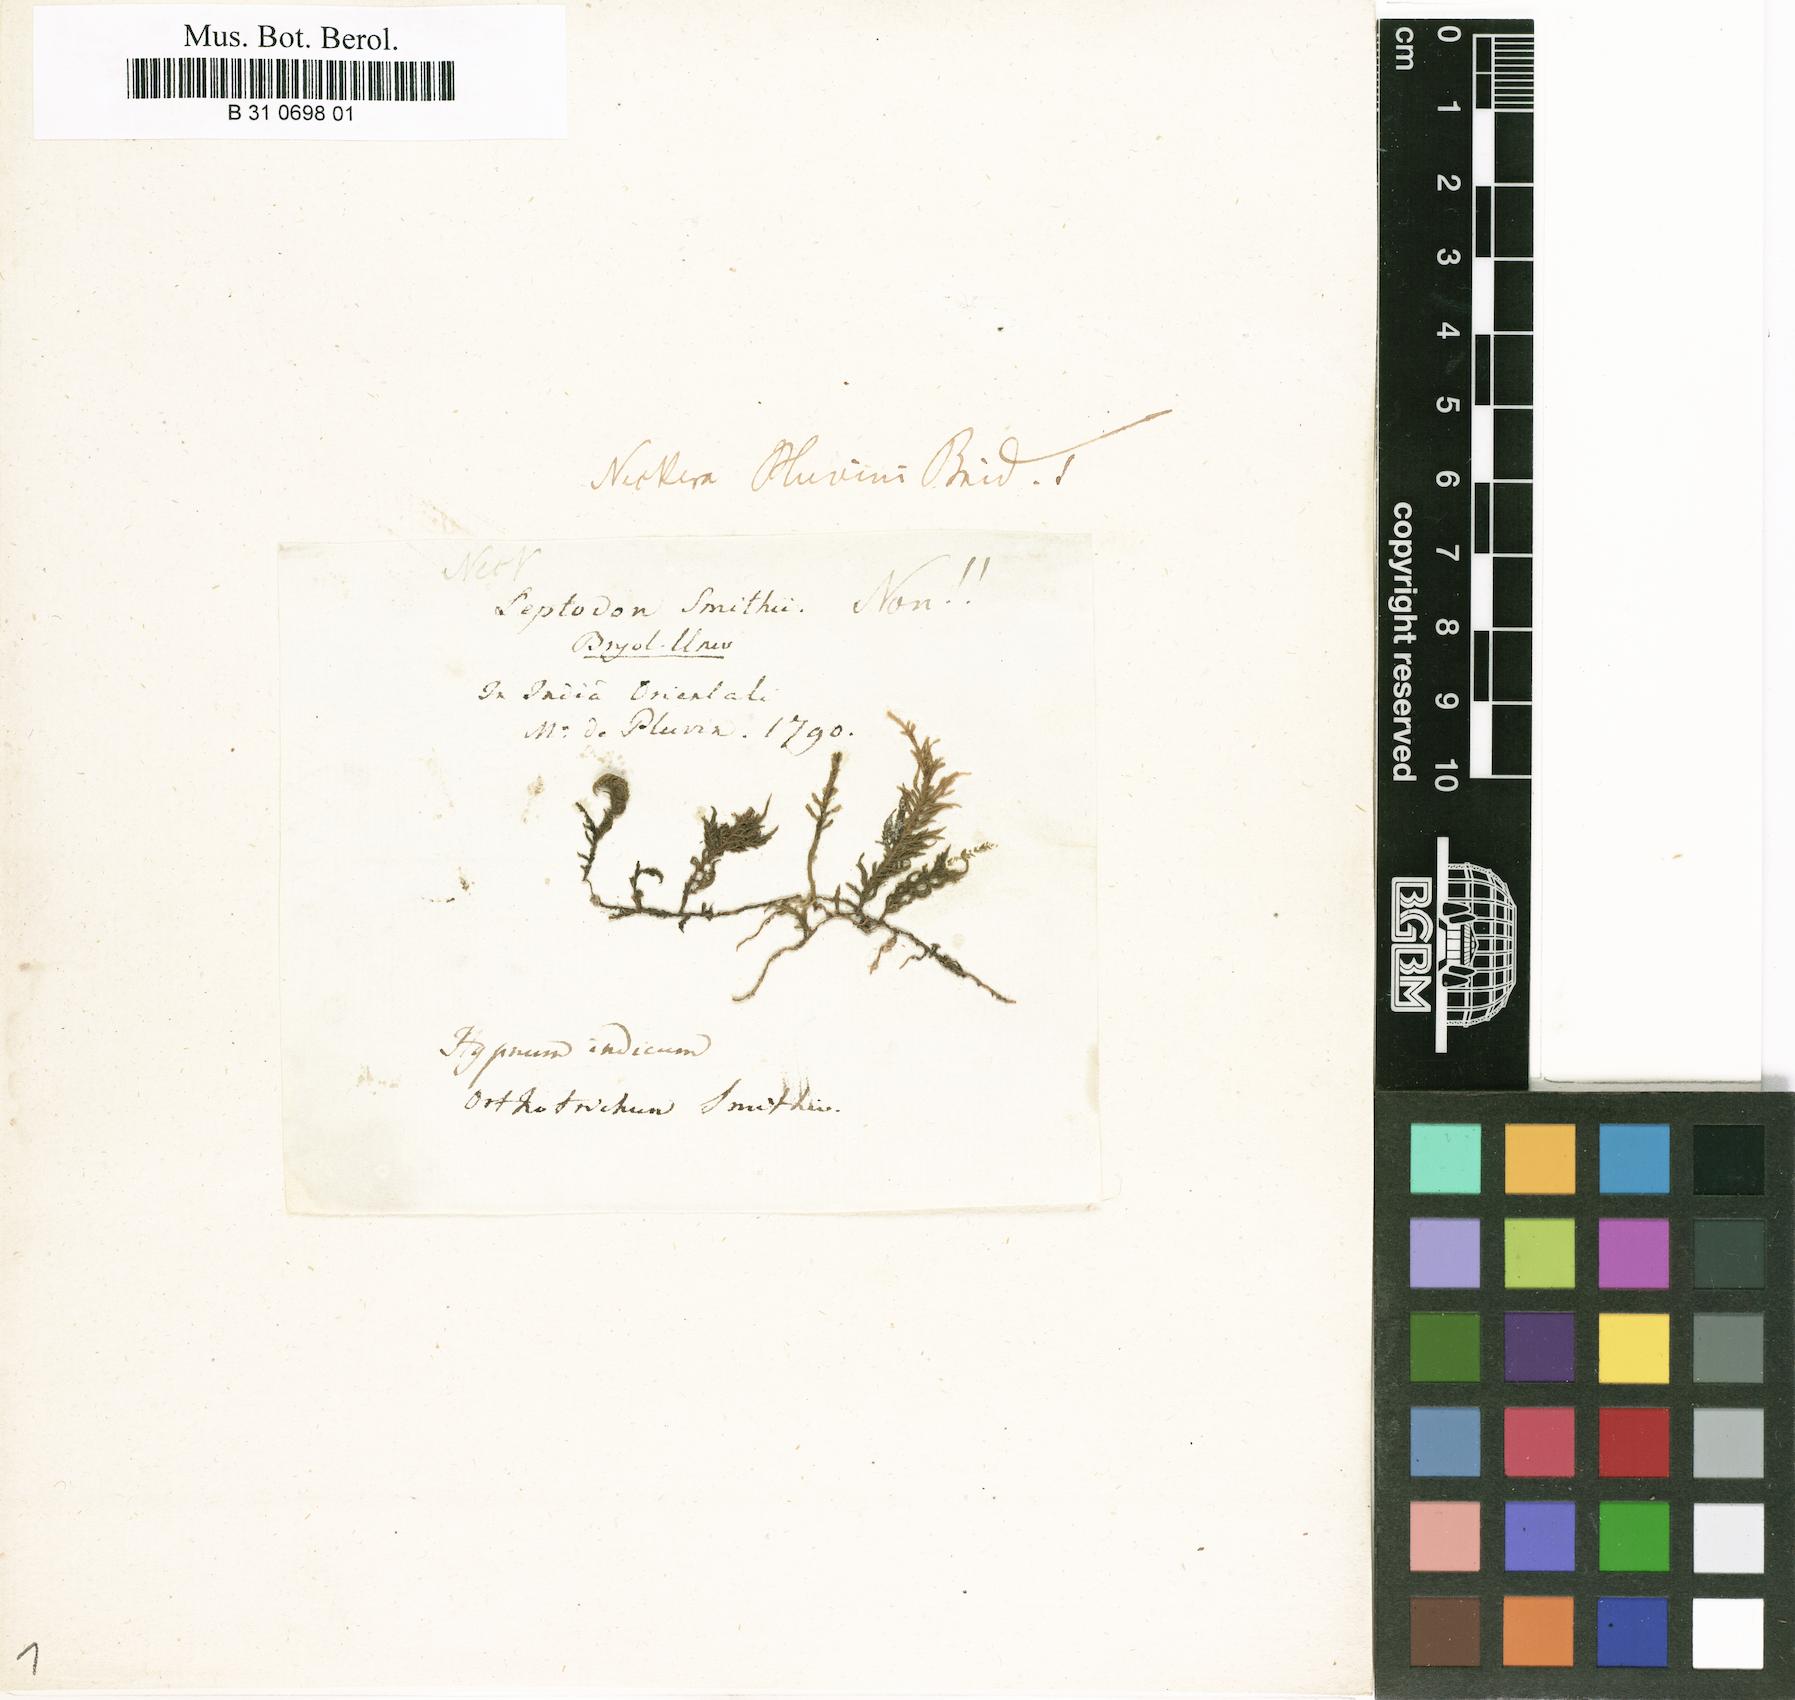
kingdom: Plantae
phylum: Bryophyta
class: Bryopsida
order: Hypnales
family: Neckeraceae
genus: Leptodon
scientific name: Leptodon smithii
